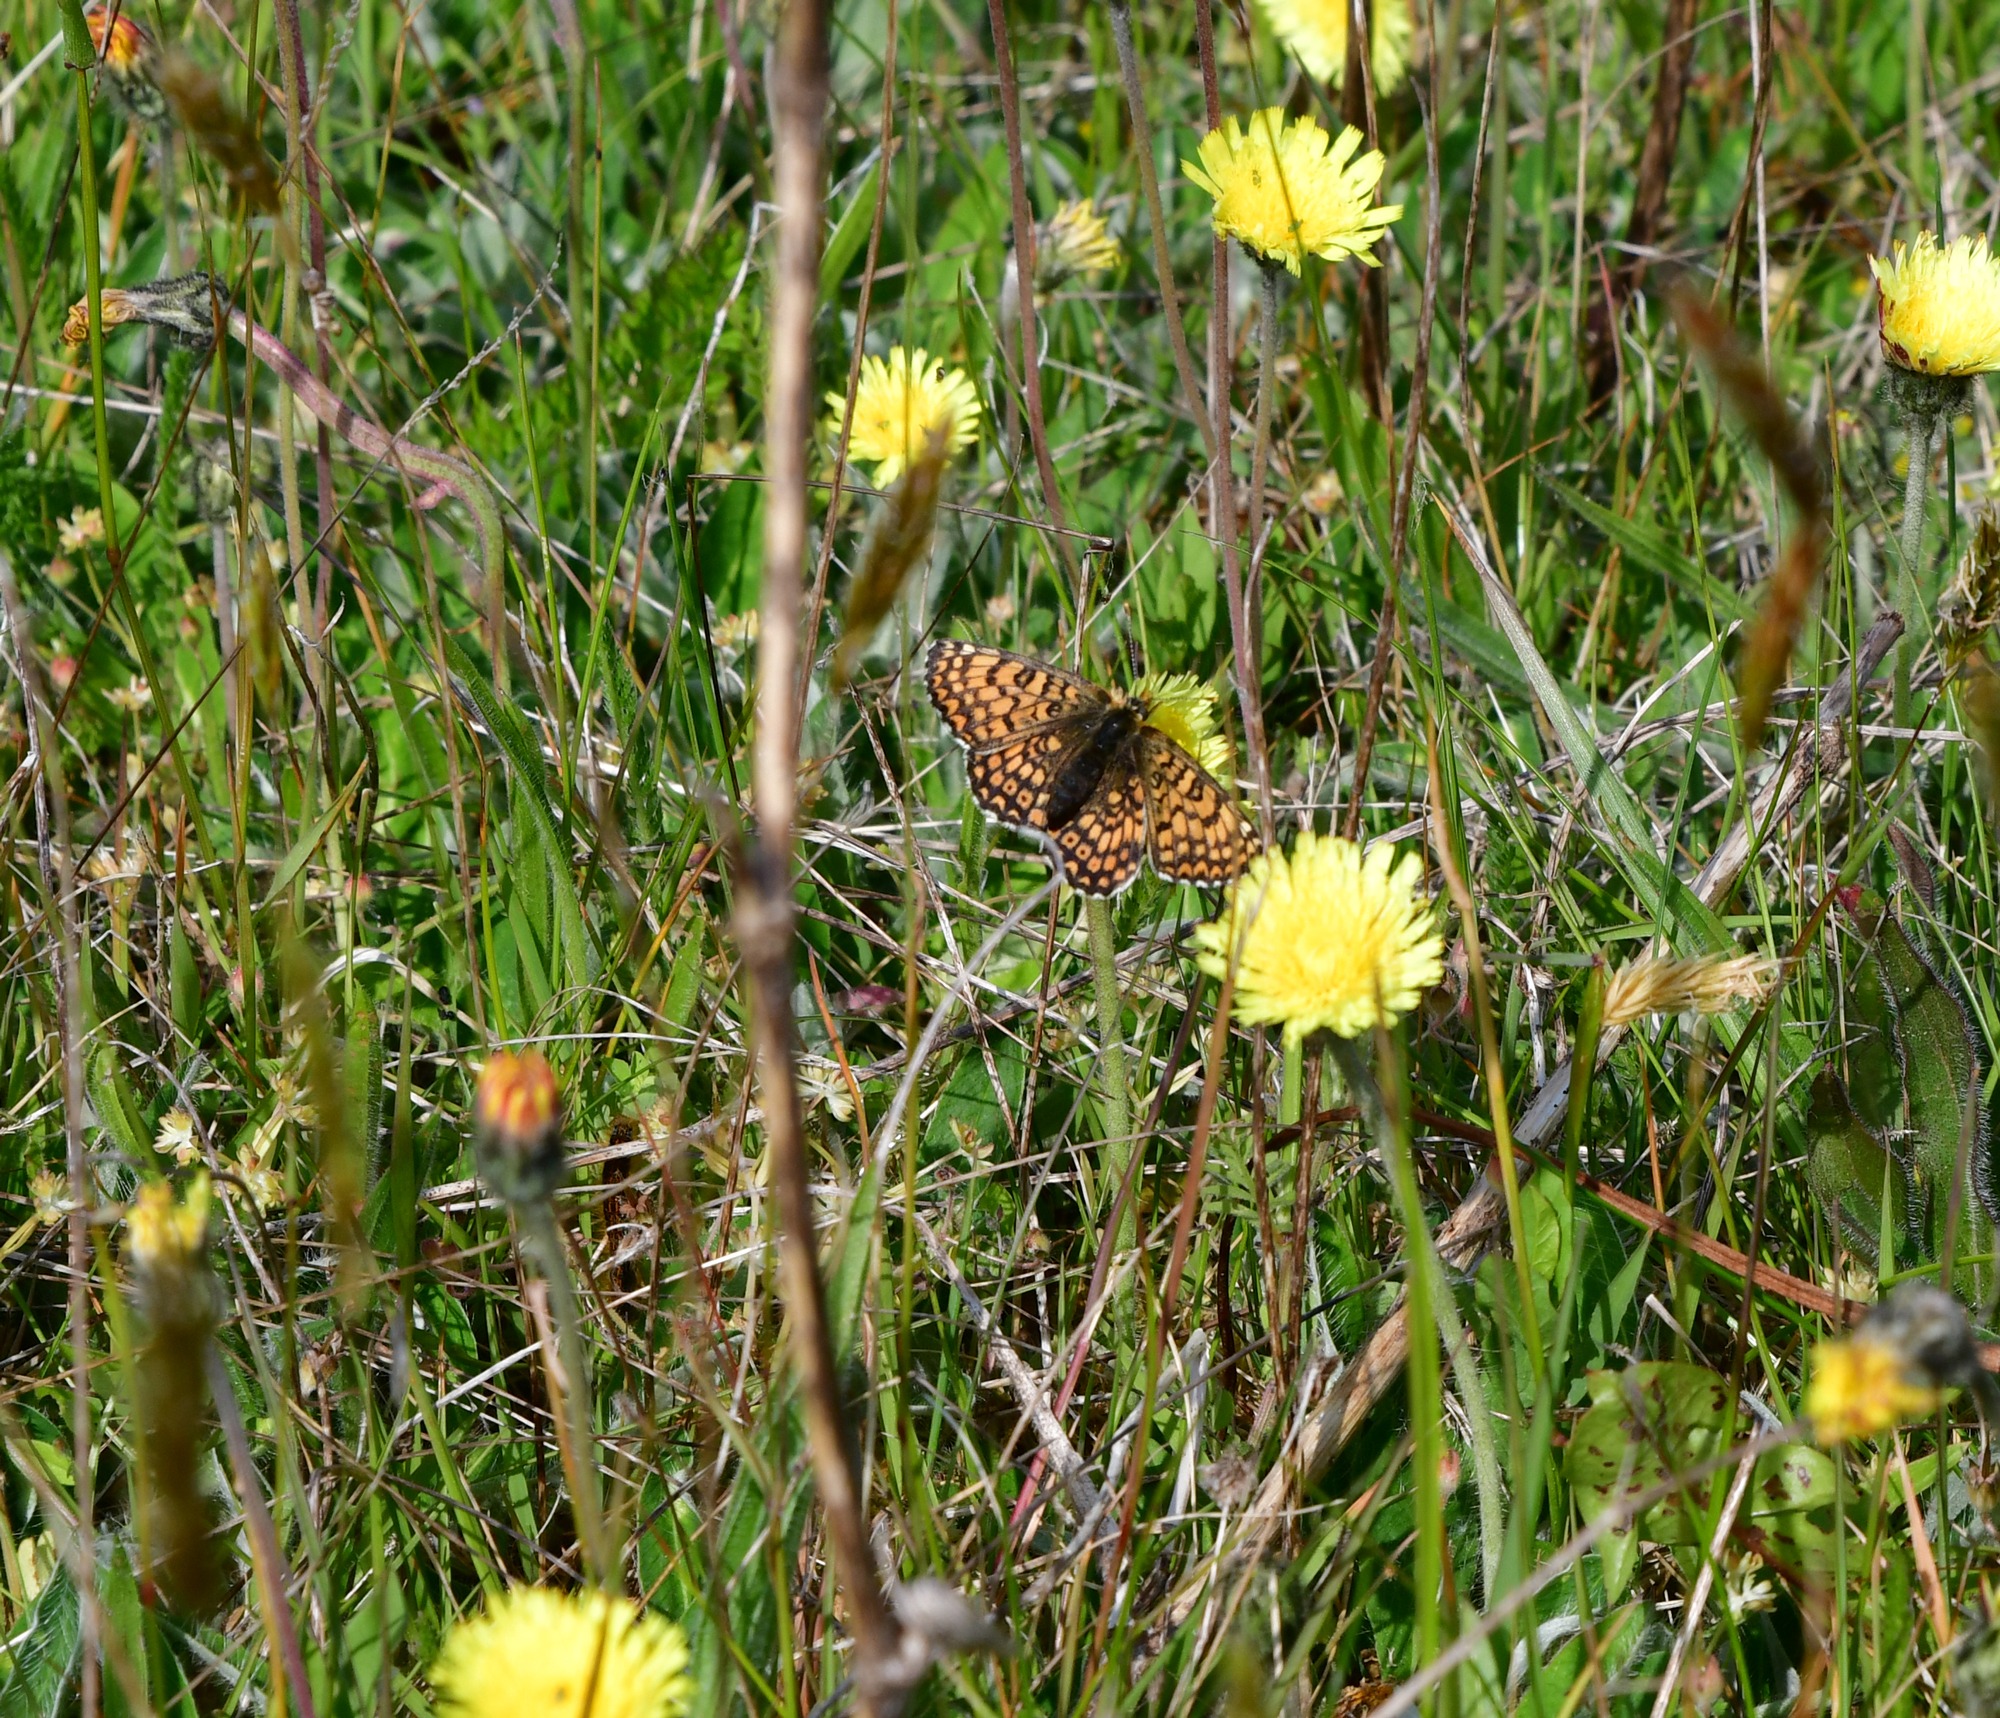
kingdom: Animalia
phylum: Arthropoda
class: Insecta
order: Lepidoptera
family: Nymphalidae
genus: Melitaea
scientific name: Melitaea cinxia
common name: Okkergul pletvinge
